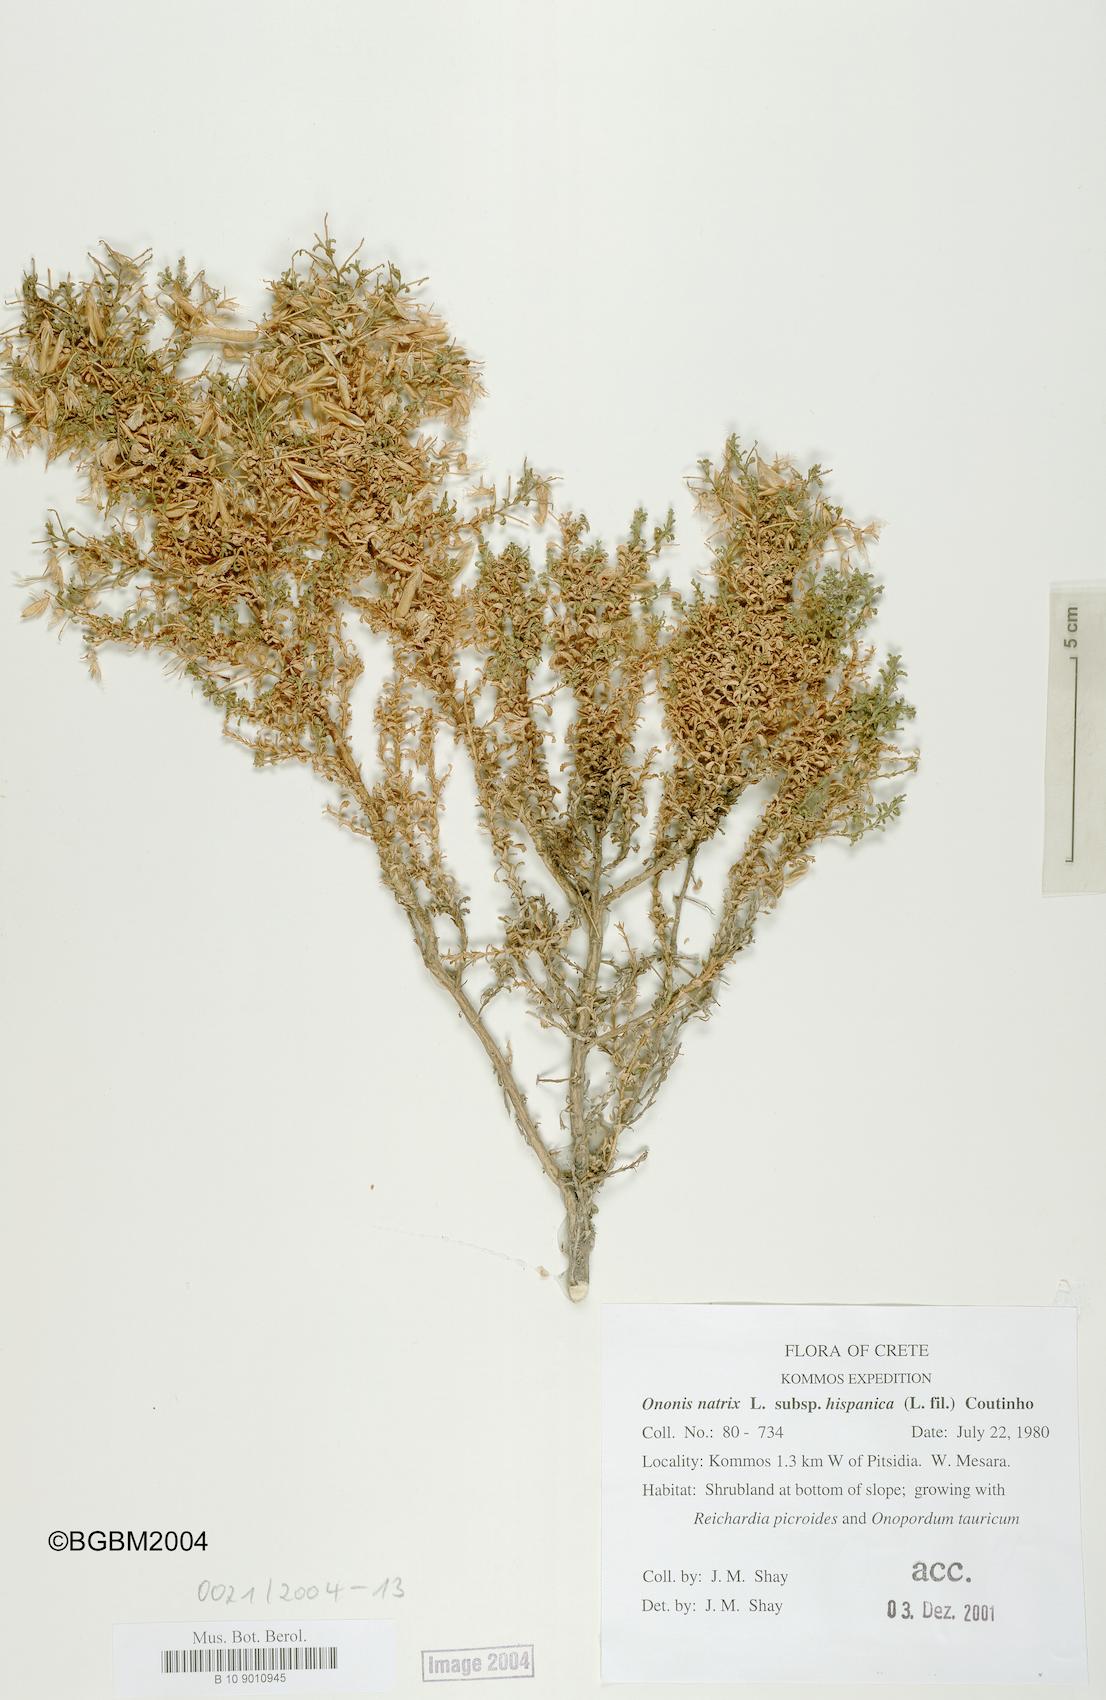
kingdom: Plantae
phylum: Tracheophyta
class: Magnoliopsida
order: Fabales
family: Fabaceae
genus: Ononis
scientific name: Ononis natrix
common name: Yellow restharrow
